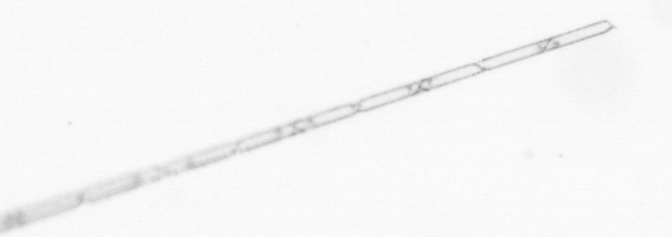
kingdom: Chromista
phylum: Ochrophyta
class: Bacillariophyceae
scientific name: Bacillariophyceae
